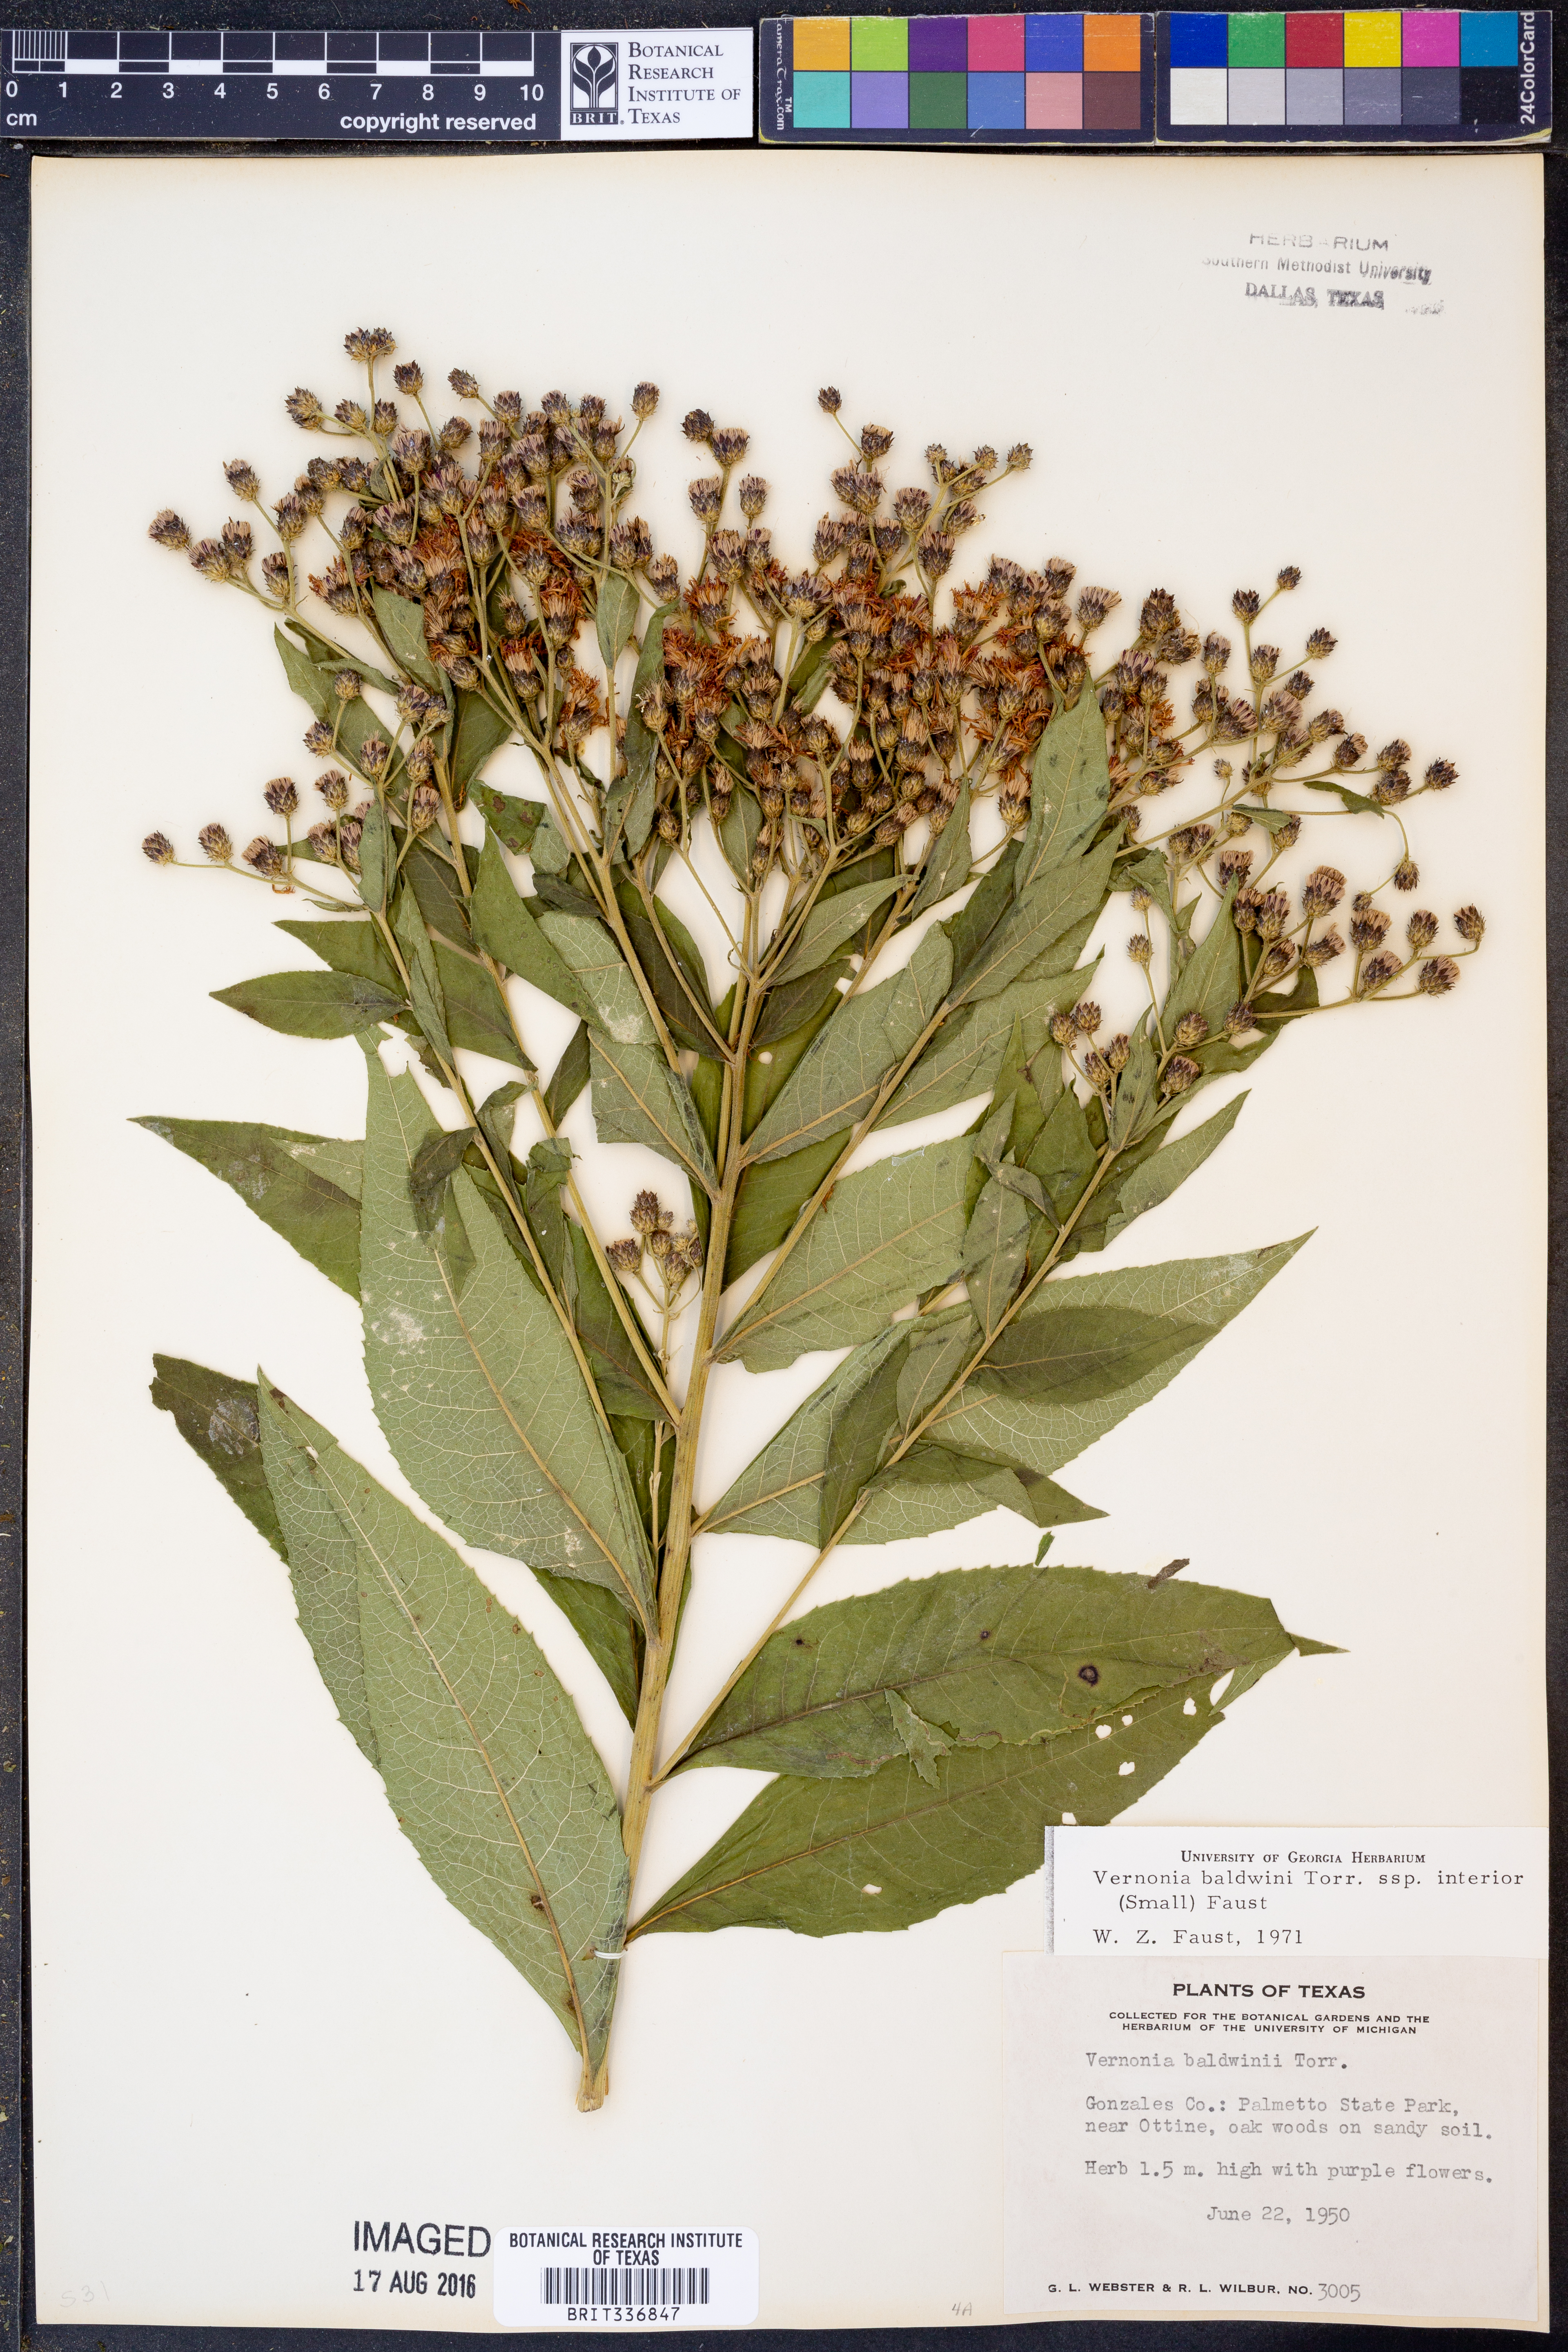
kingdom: Plantae
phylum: Tracheophyta
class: Magnoliopsida
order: Asterales
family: Asteraceae
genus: Vernonia
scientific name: Vernonia baldwinii
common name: Western ironweed
